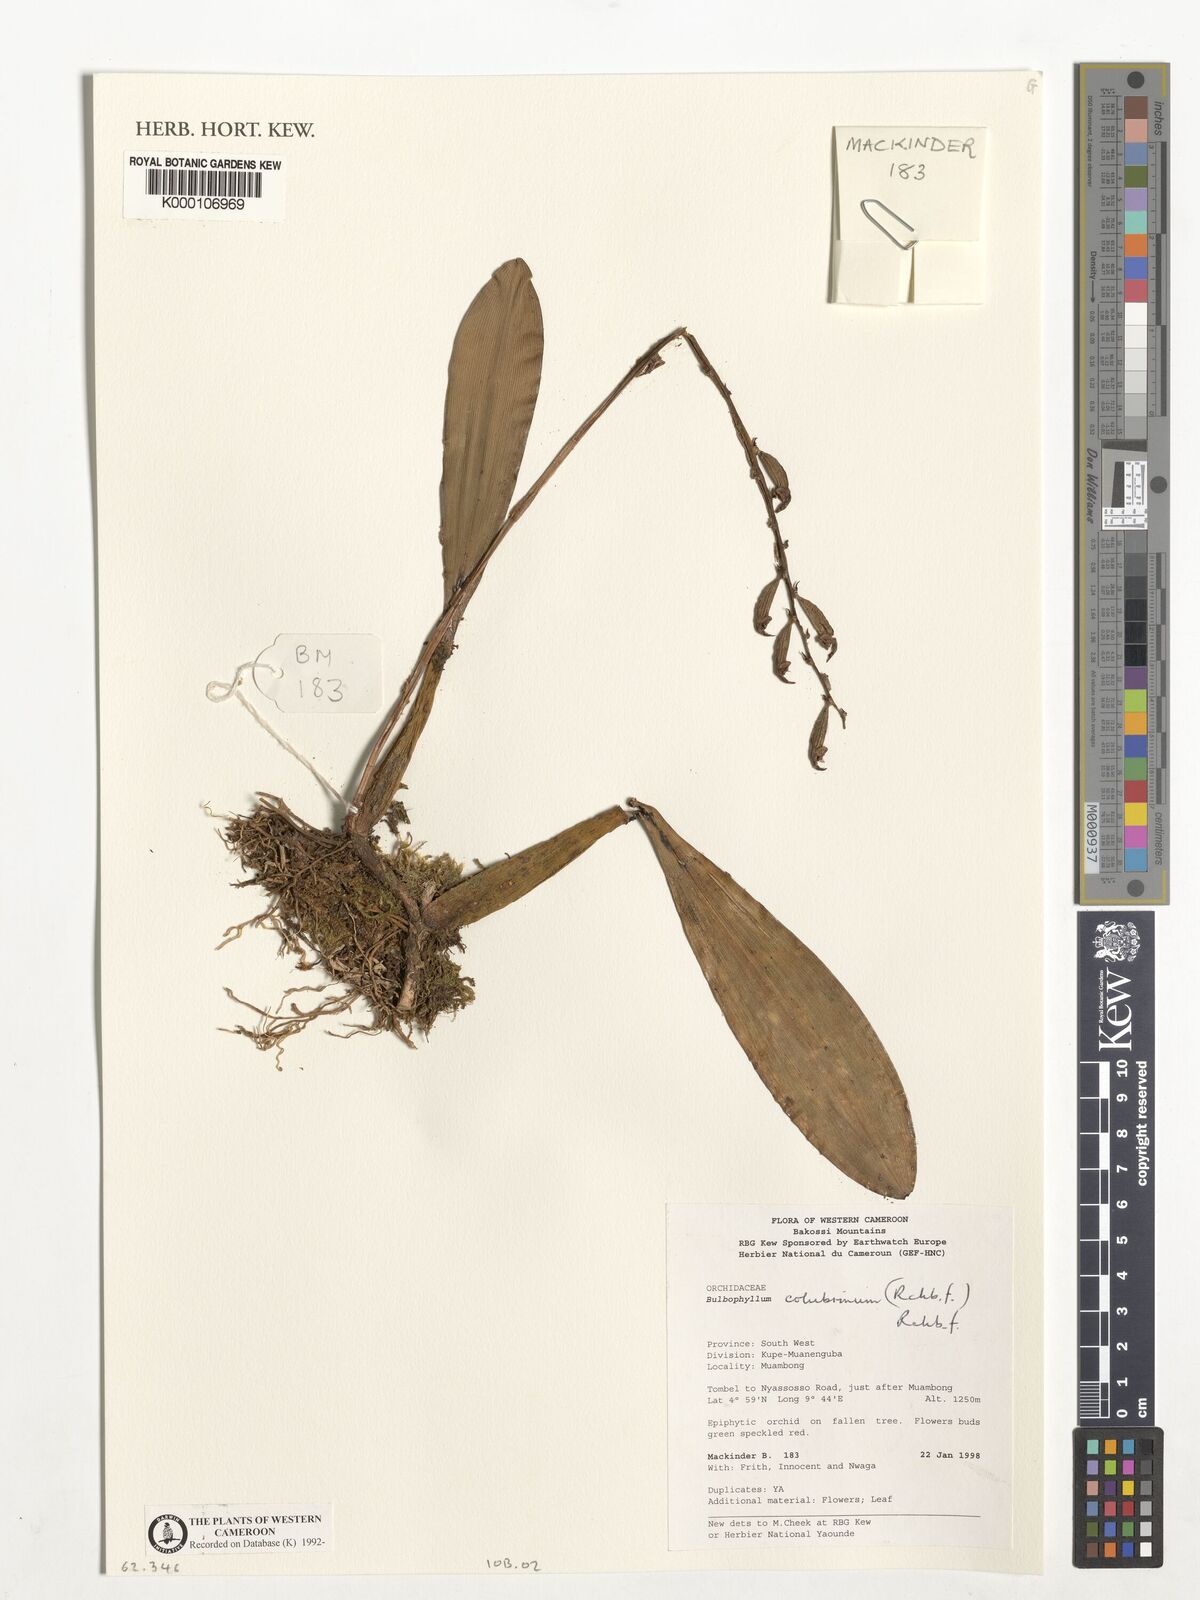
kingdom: Plantae
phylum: Tracheophyta
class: Liliopsida
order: Asparagales
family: Orchidaceae
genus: Bulbophyllum
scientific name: Bulbophyllum colubrinum
